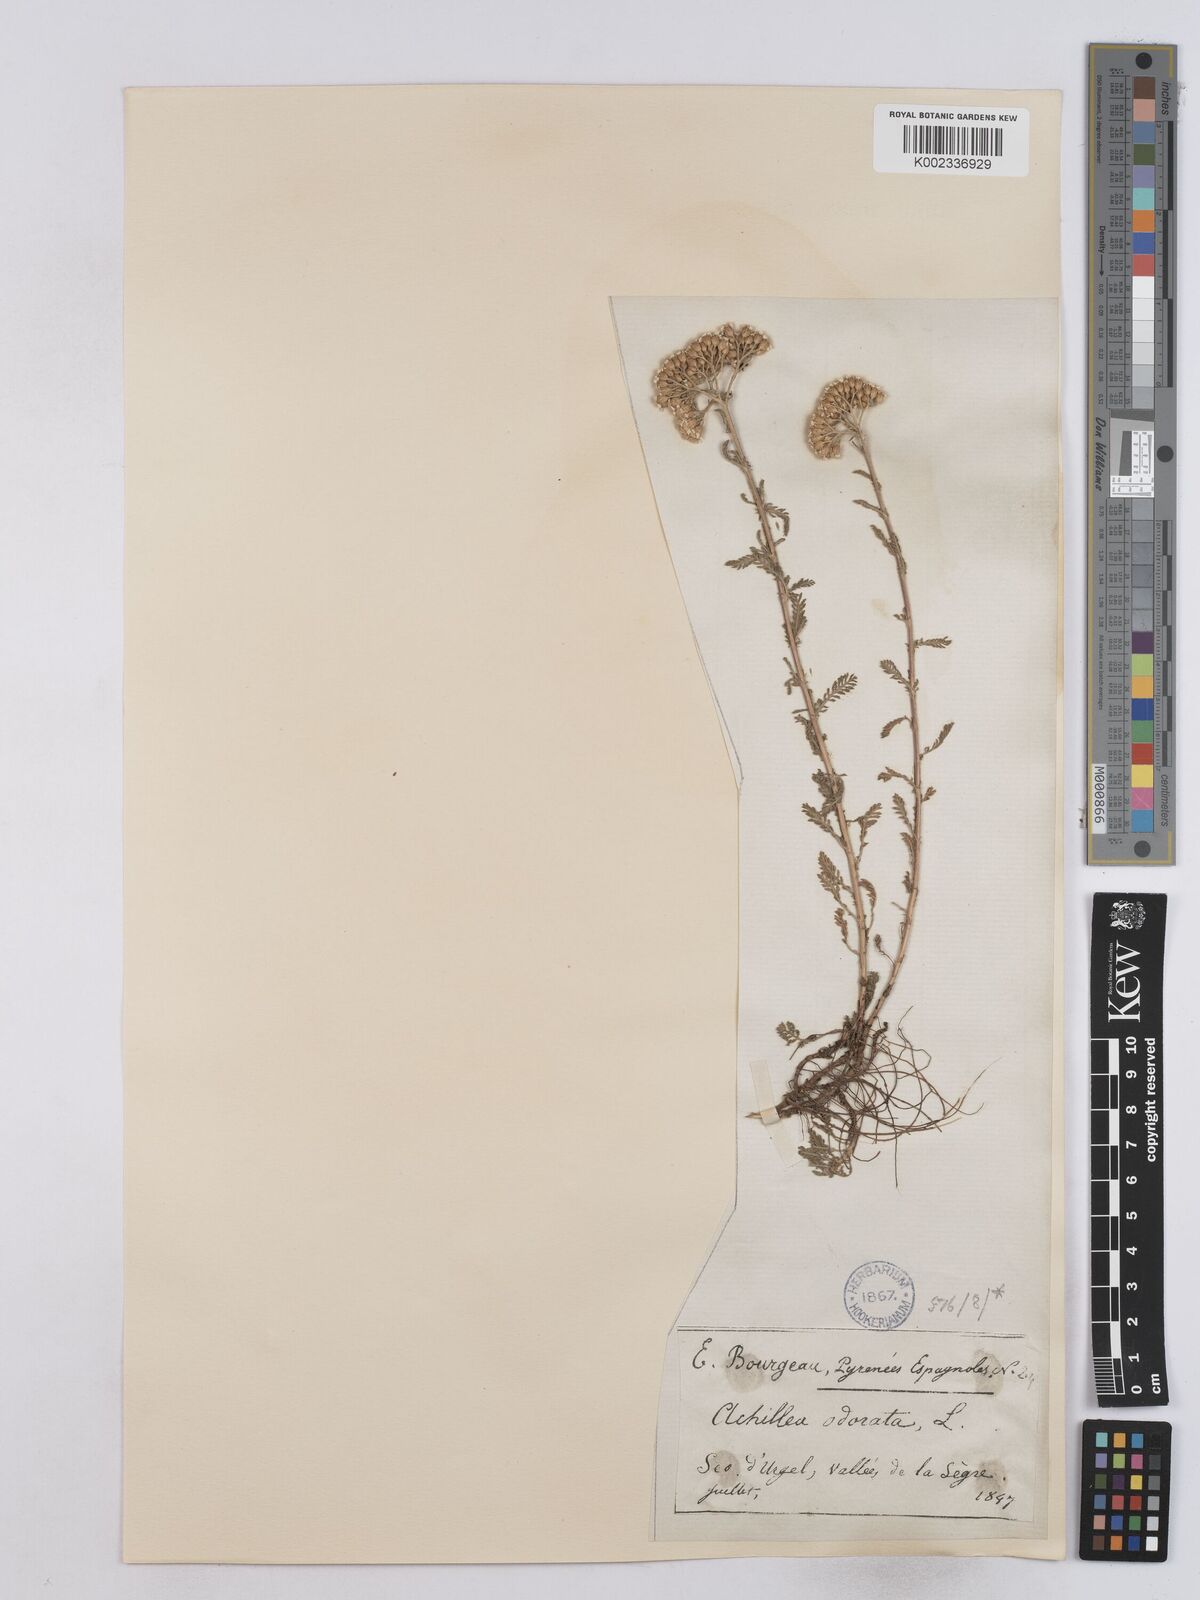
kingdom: Plantae
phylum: Tracheophyta
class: Magnoliopsida
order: Asterales
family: Asteraceae
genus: Achillea
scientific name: Achillea odorata
